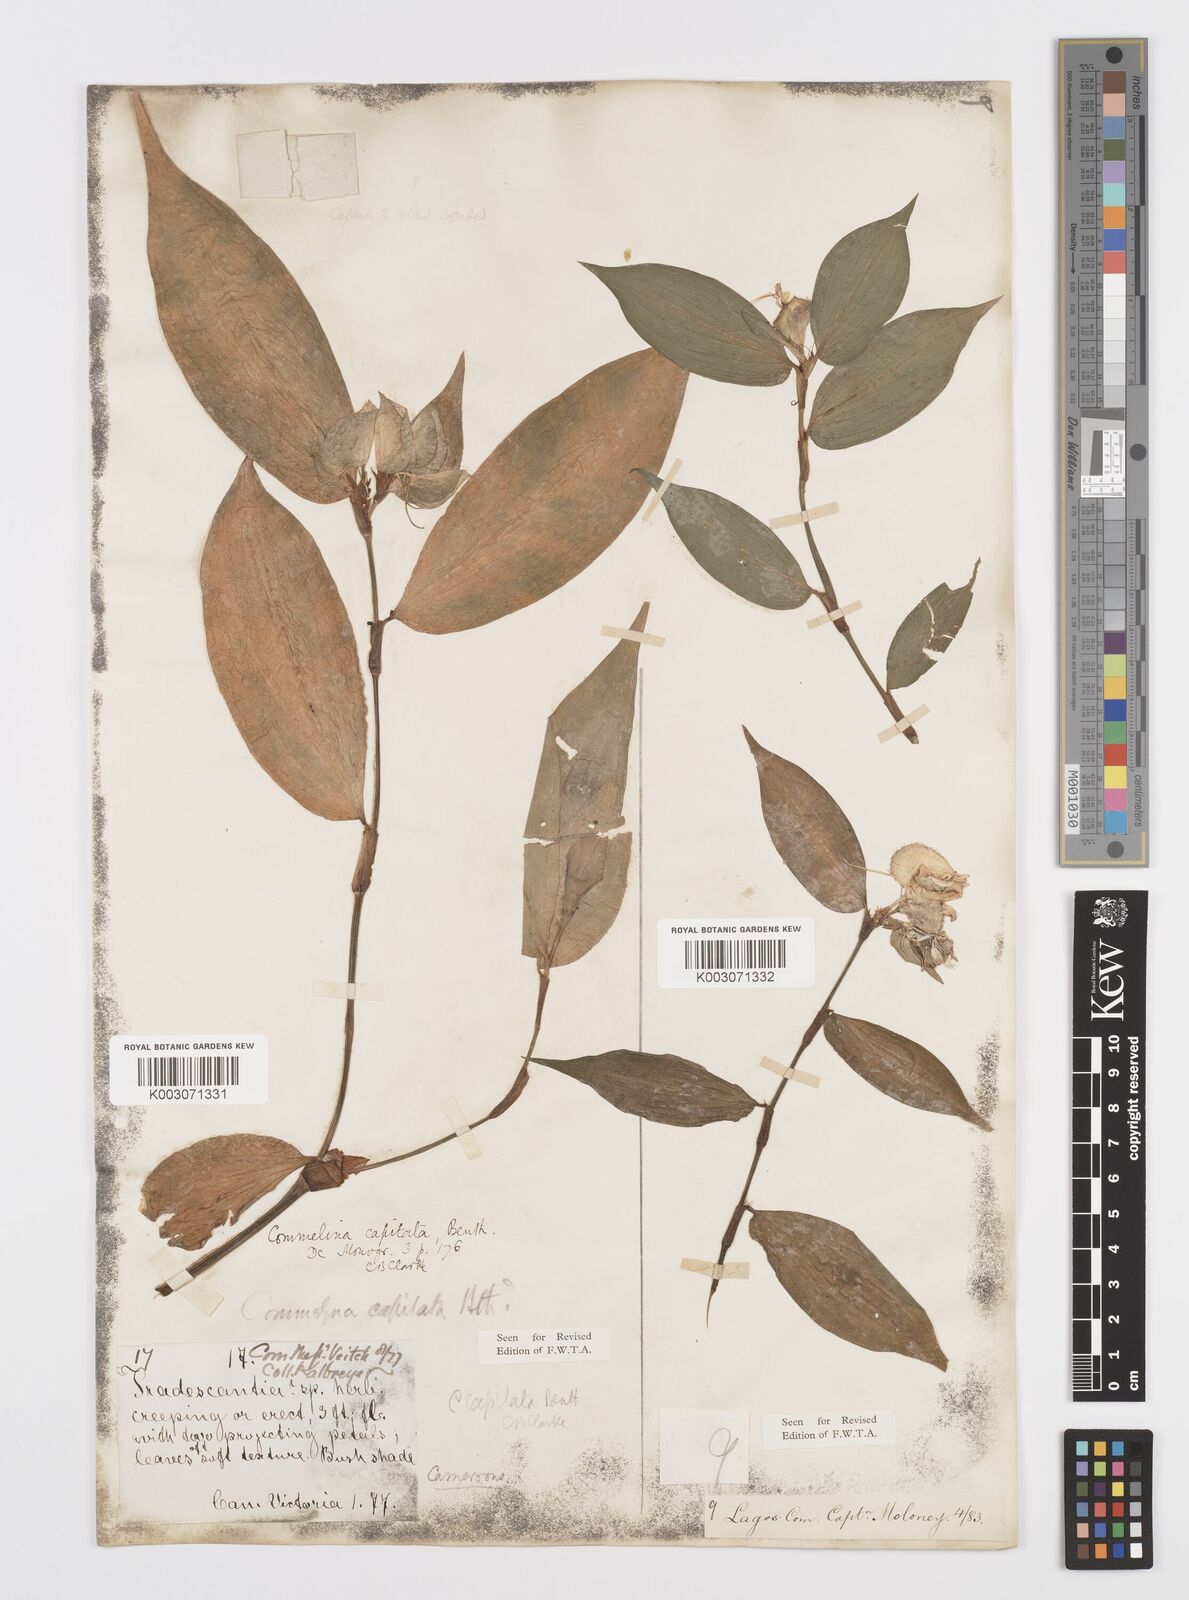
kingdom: Plantae
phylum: Tracheophyta
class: Liliopsida
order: Commelinales
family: Commelinaceae
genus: Commelina
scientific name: Commelina capitata
